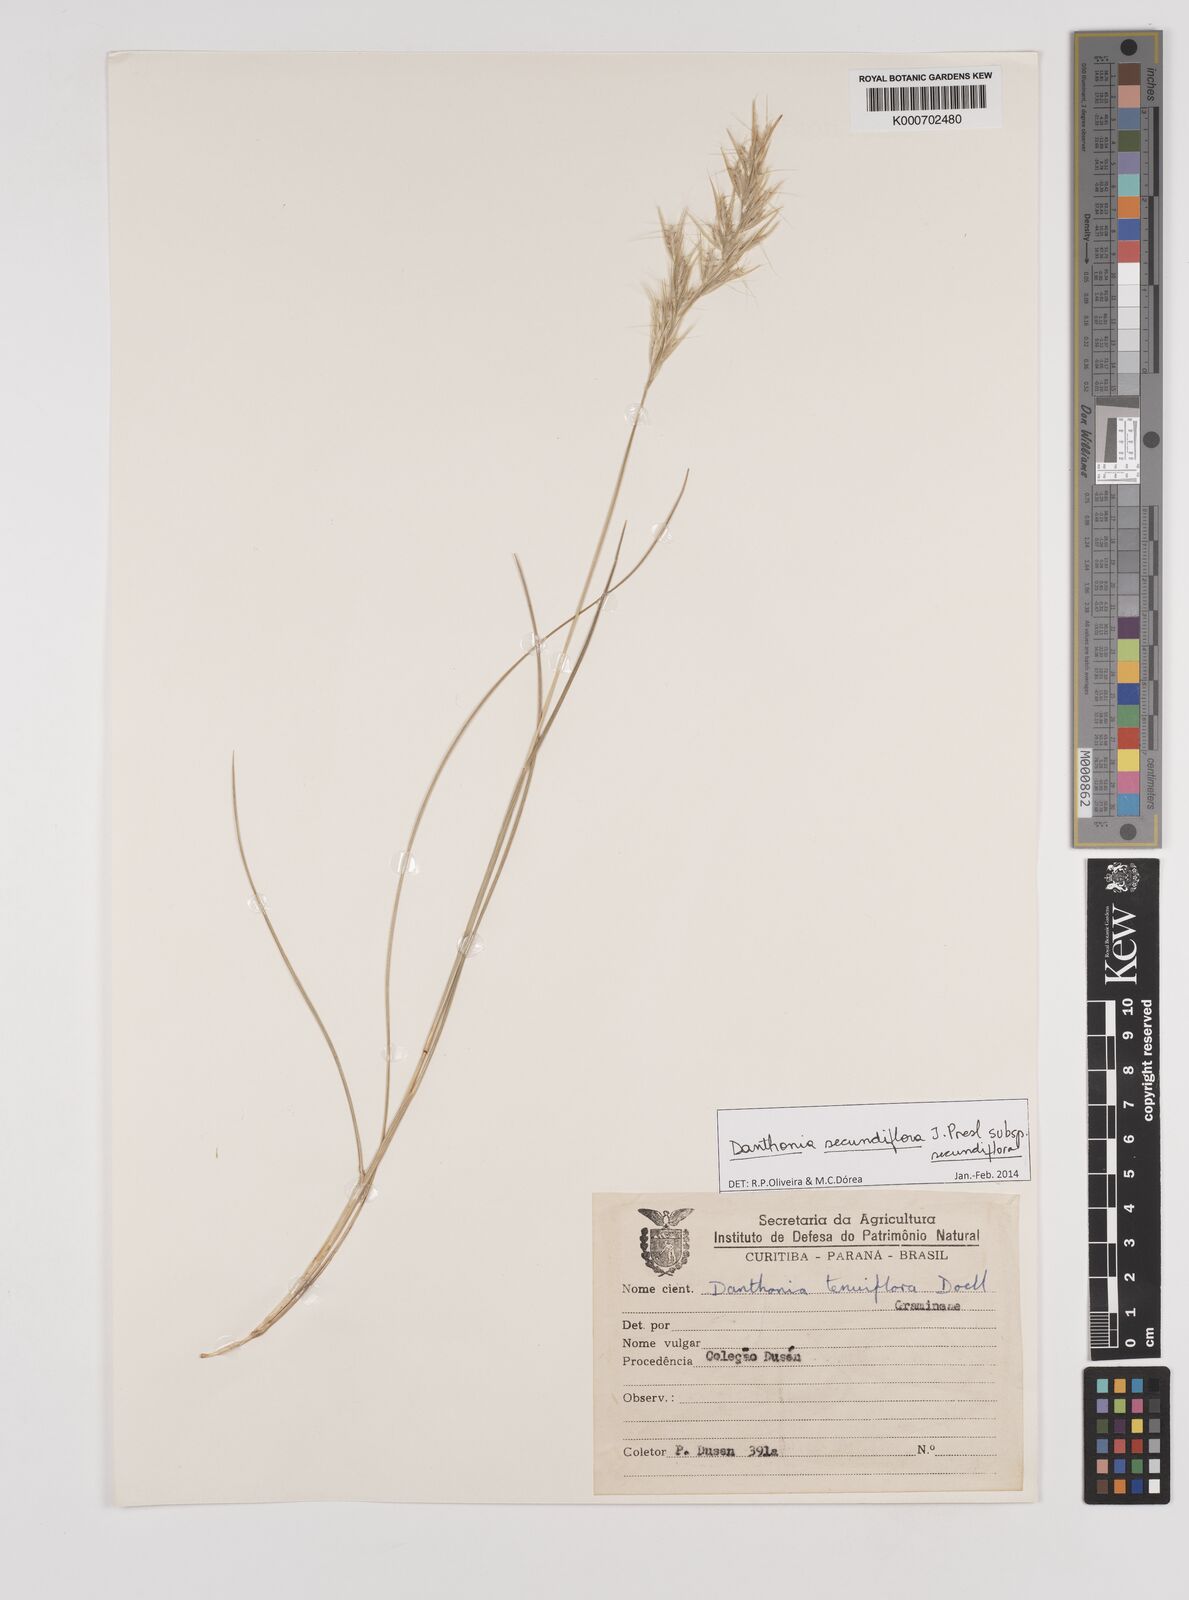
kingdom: Plantae
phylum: Tracheophyta
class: Liliopsida
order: Poales
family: Poaceae
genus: Danthonia
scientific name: Danthonia secundiflora
